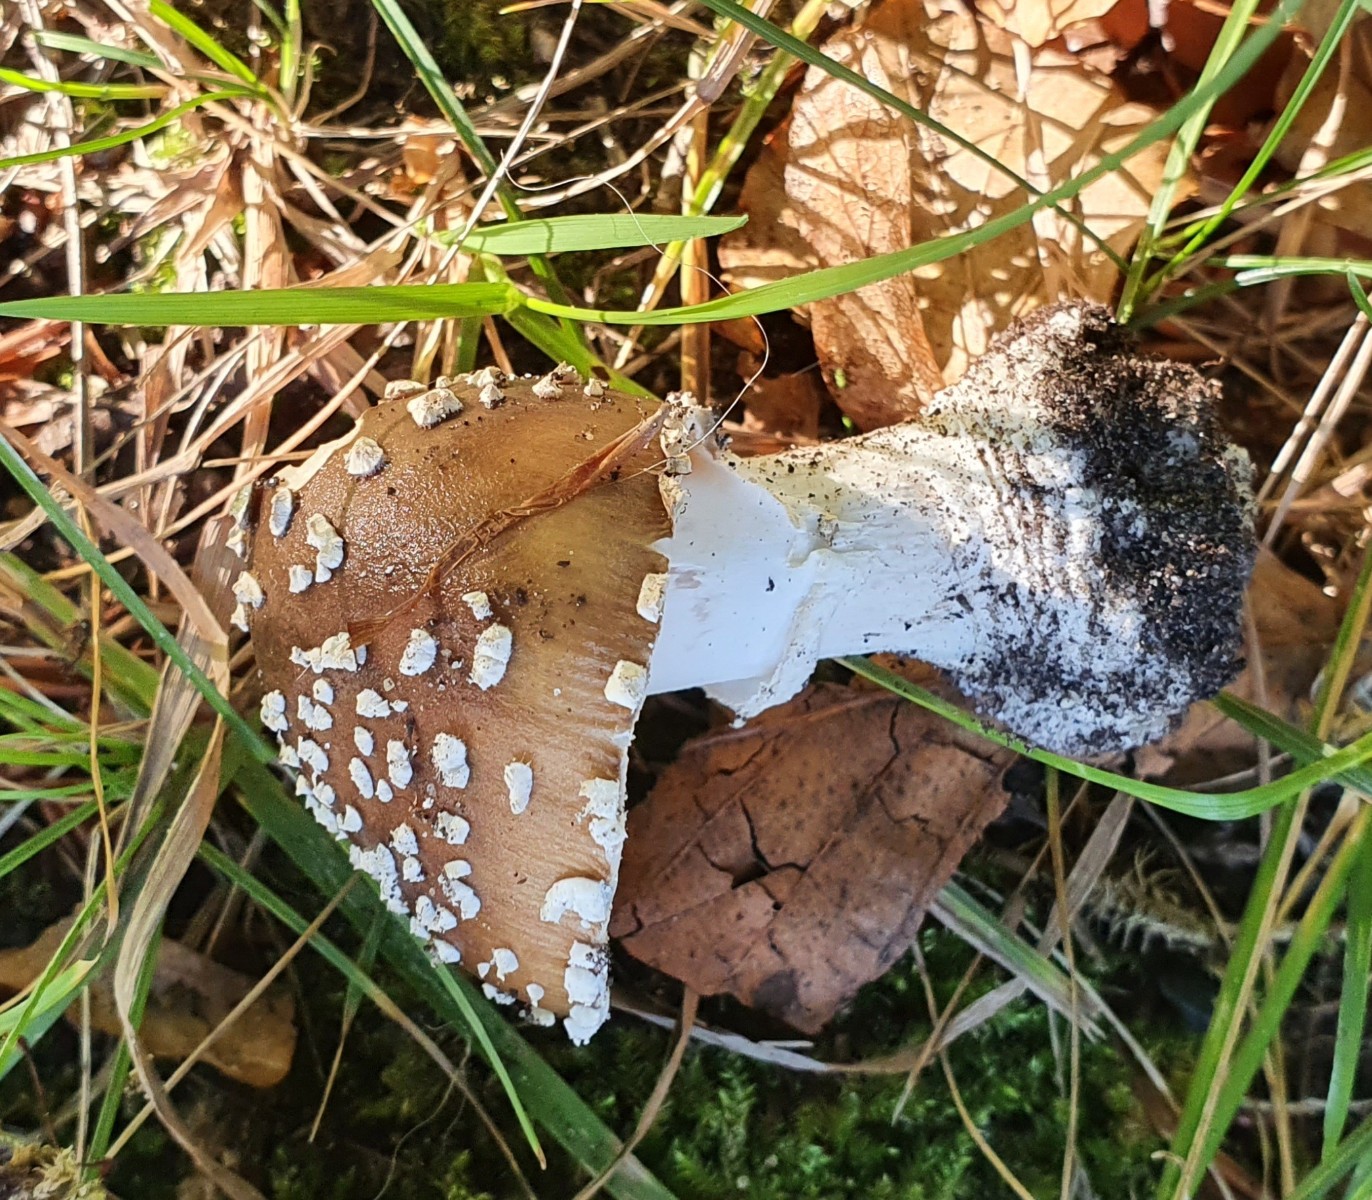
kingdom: Fungi
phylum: Basidiomycota
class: Agaricomycetes
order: Agaricales
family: Amanitaceae
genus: Amanita
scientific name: Amanita pantherina
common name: panter-fluesvamp
